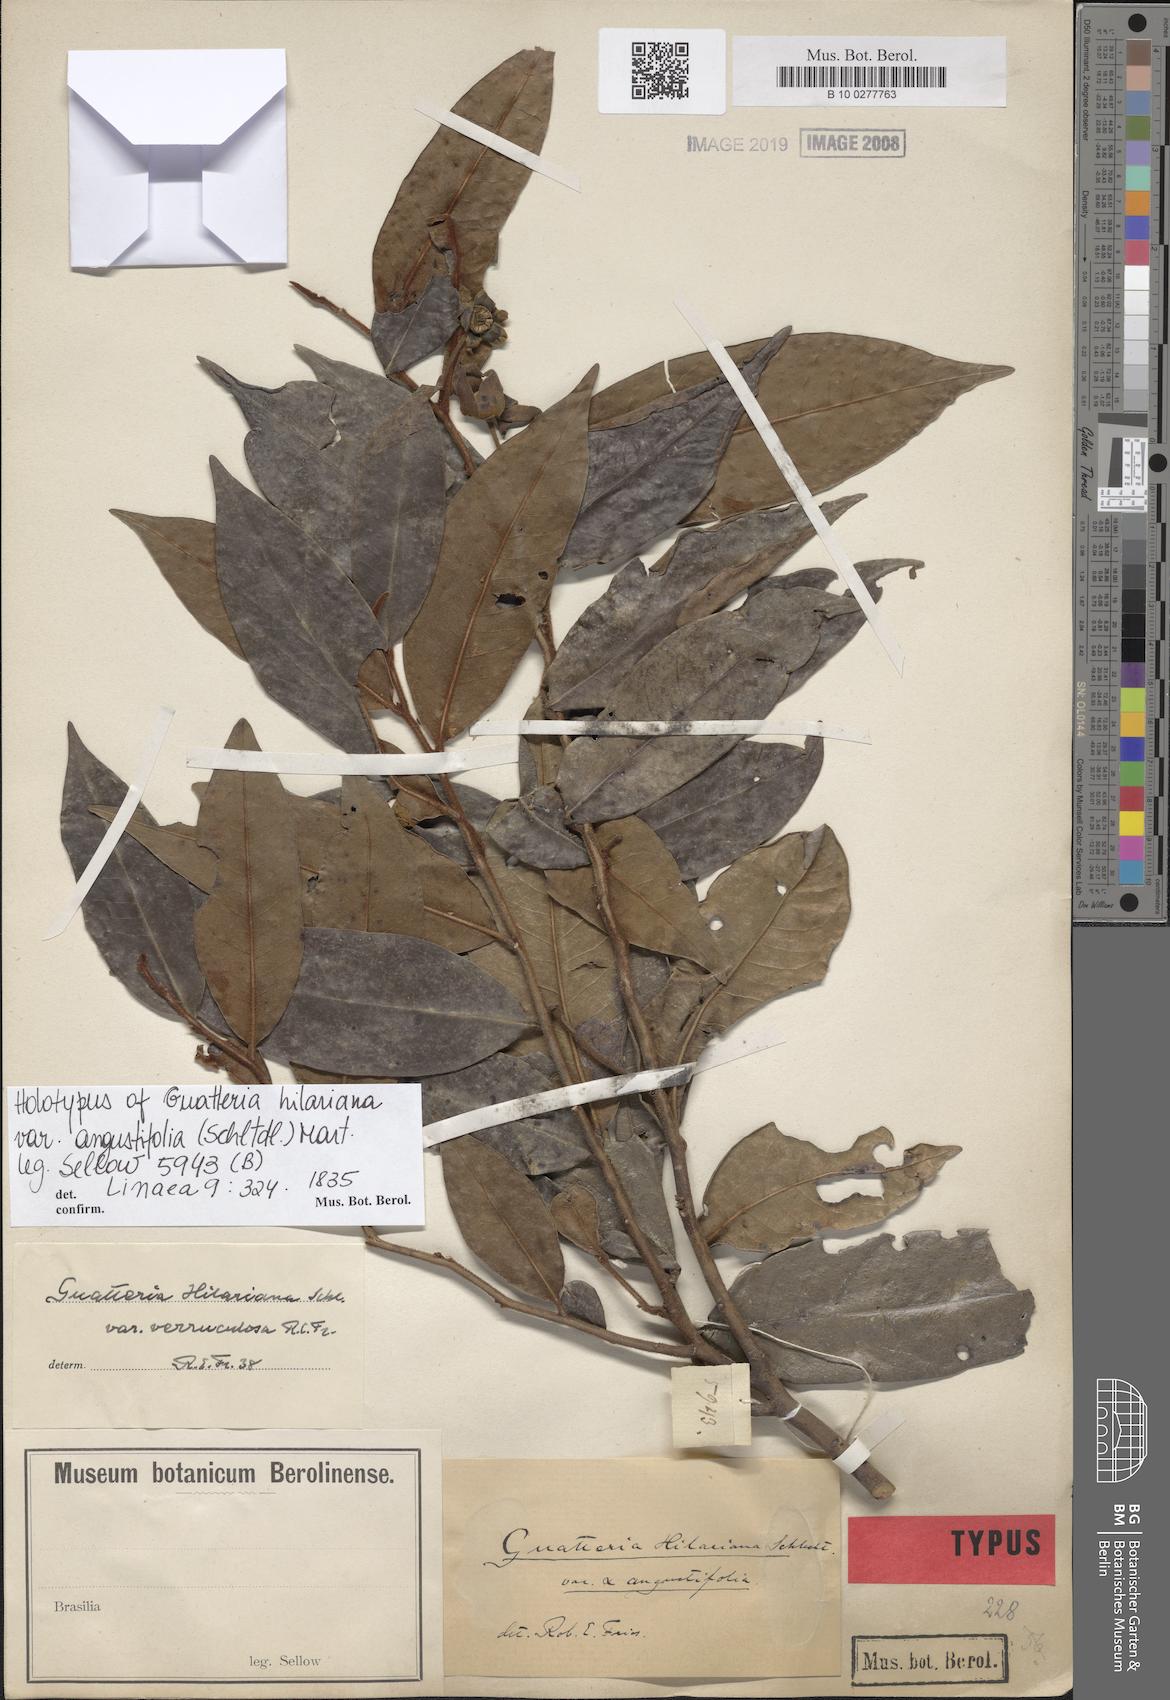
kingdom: Plantae
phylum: Tracheophyta
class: Magnoliopsida
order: Magnoliales
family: Annonaceae
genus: Guatteria
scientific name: Guatteria australis
